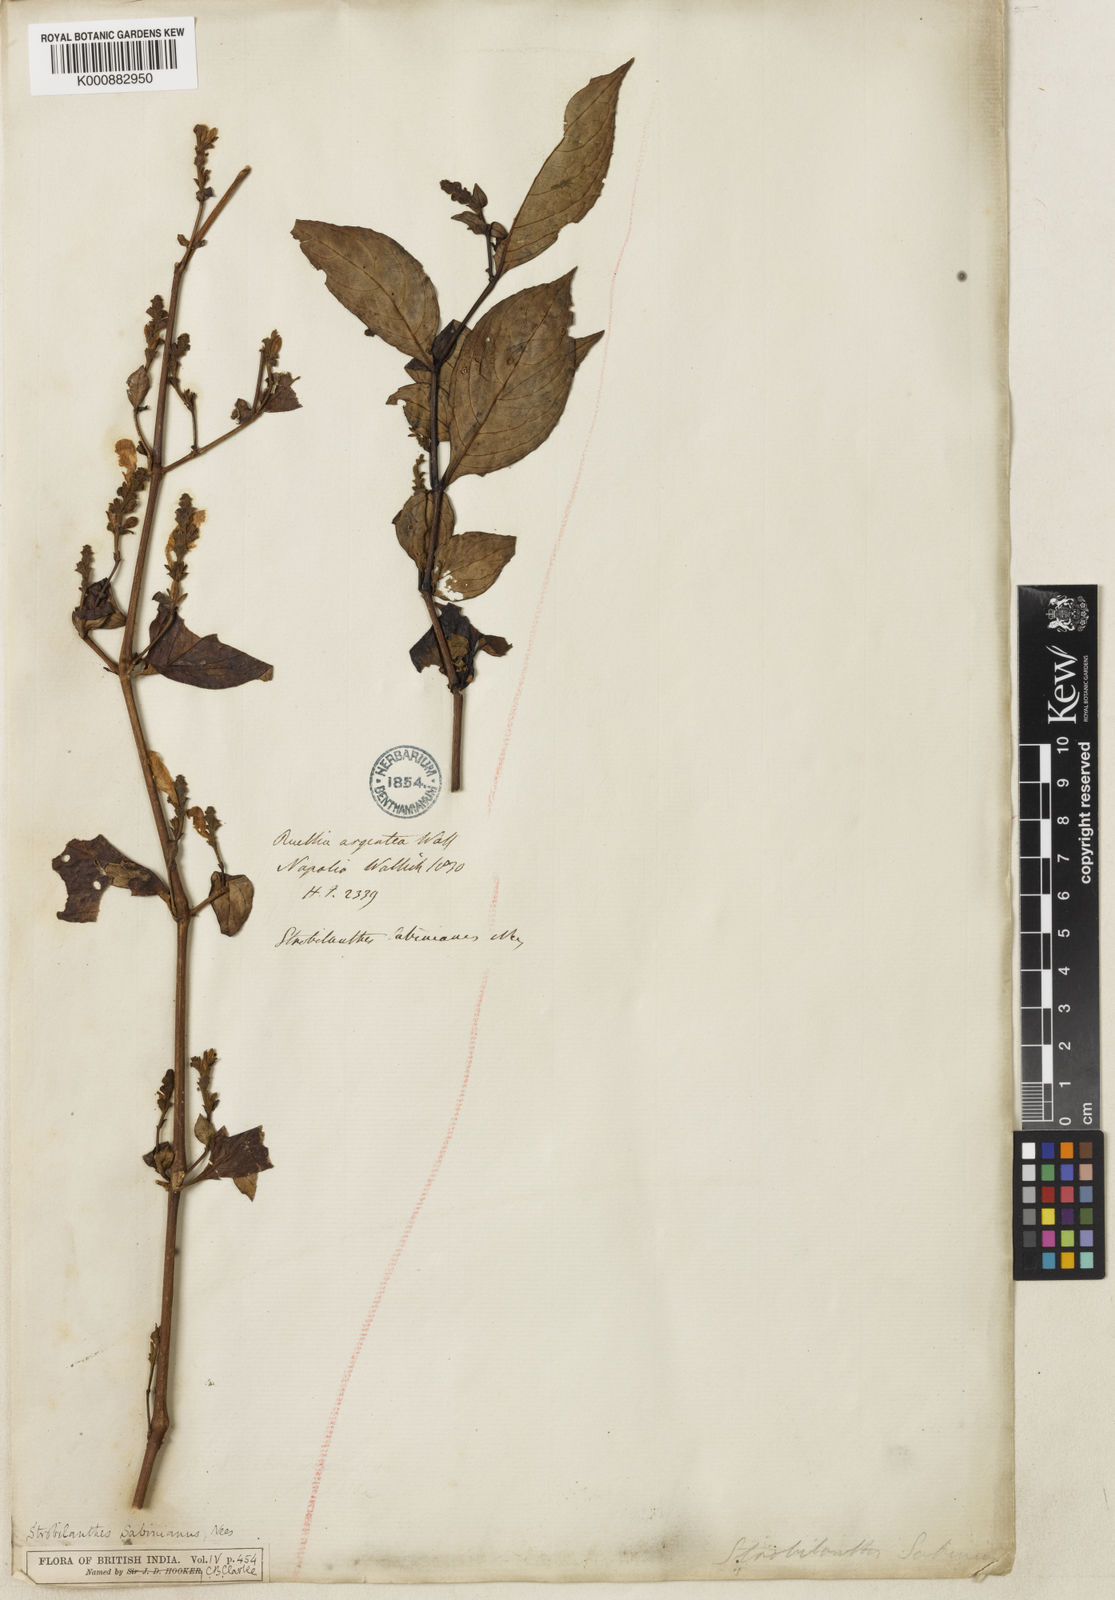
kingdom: Plantae
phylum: Tracheophyta
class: Magnoliopsida
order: Lamiales
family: Acanthaceae
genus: Strobilanthes
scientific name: Strobilanthes sabiniana
